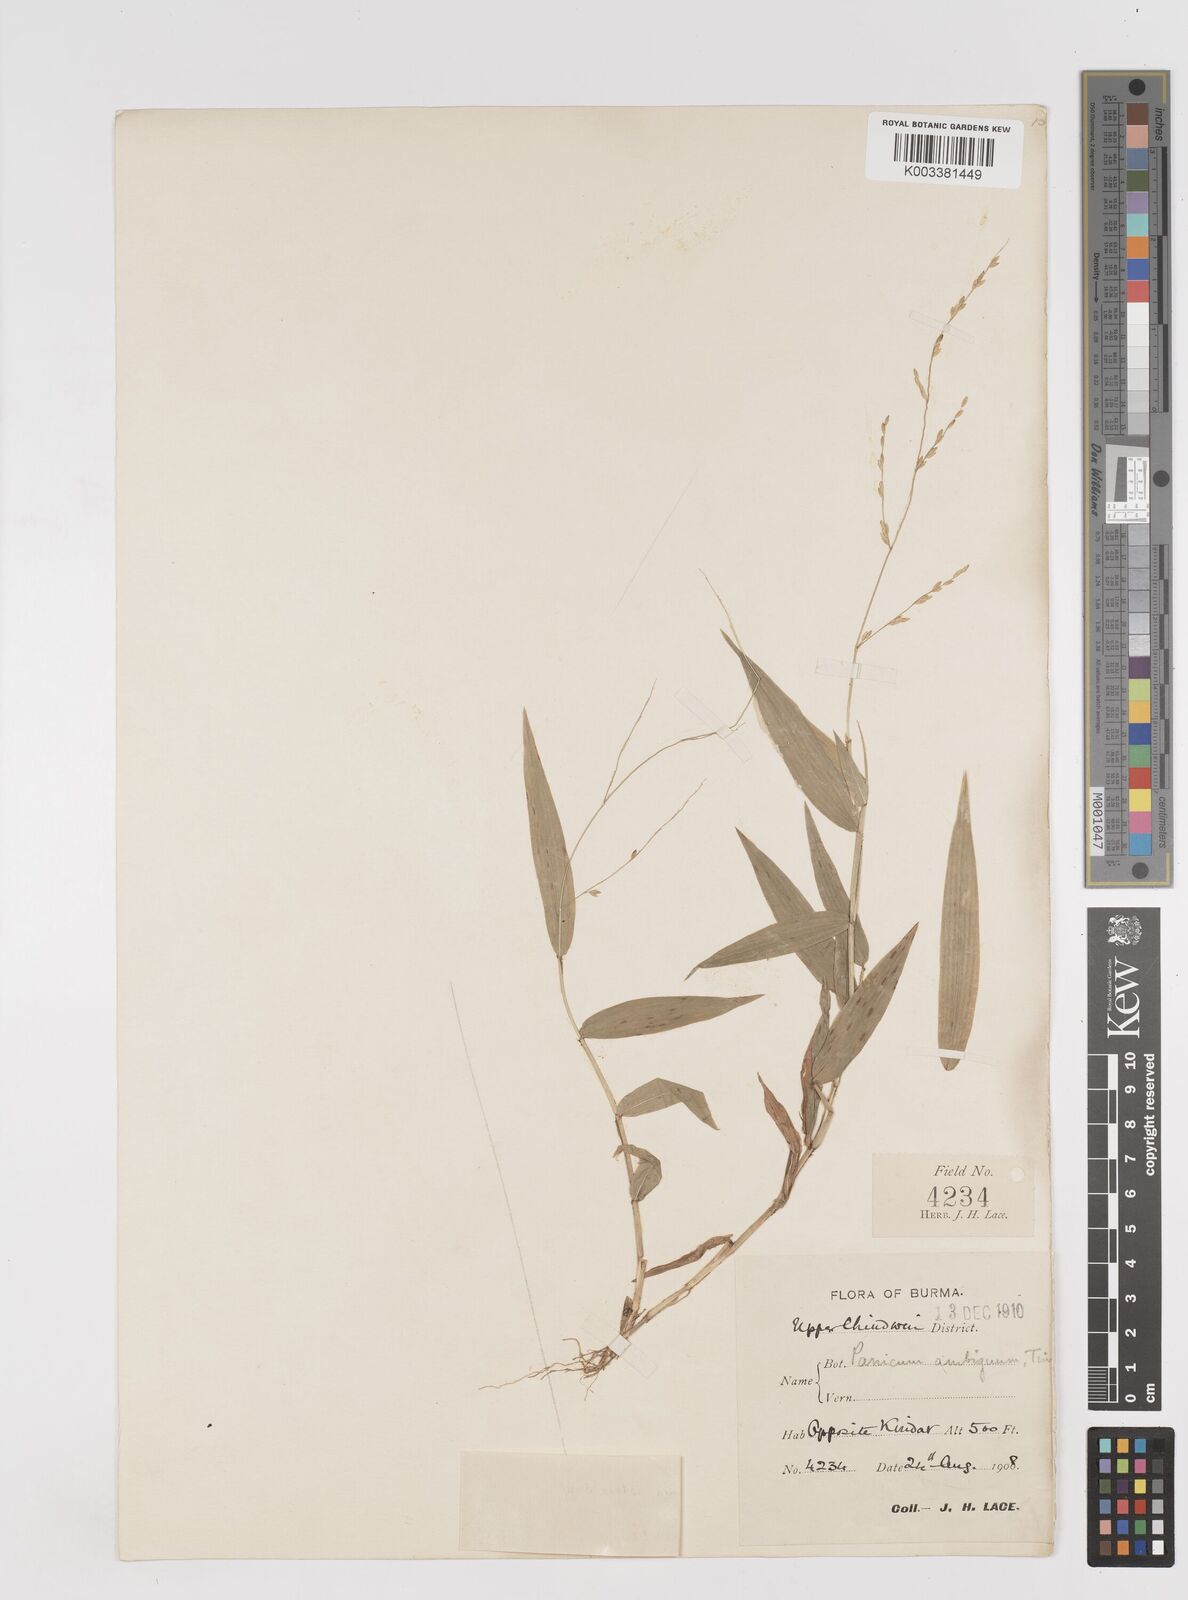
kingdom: Plantae
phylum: Tracheophyta
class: Liliopsida
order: Poales
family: Poaceae
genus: Ottochloa
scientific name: Ottochloa nodosa
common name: Slender-panic grass
